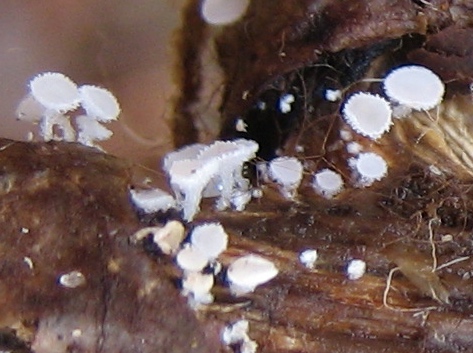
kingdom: Fungi
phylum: Ascomycota
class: Leotiomycetes
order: Helotiales
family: Lachnaceae
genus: Lachnum
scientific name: Lachnum
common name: frynseskive
